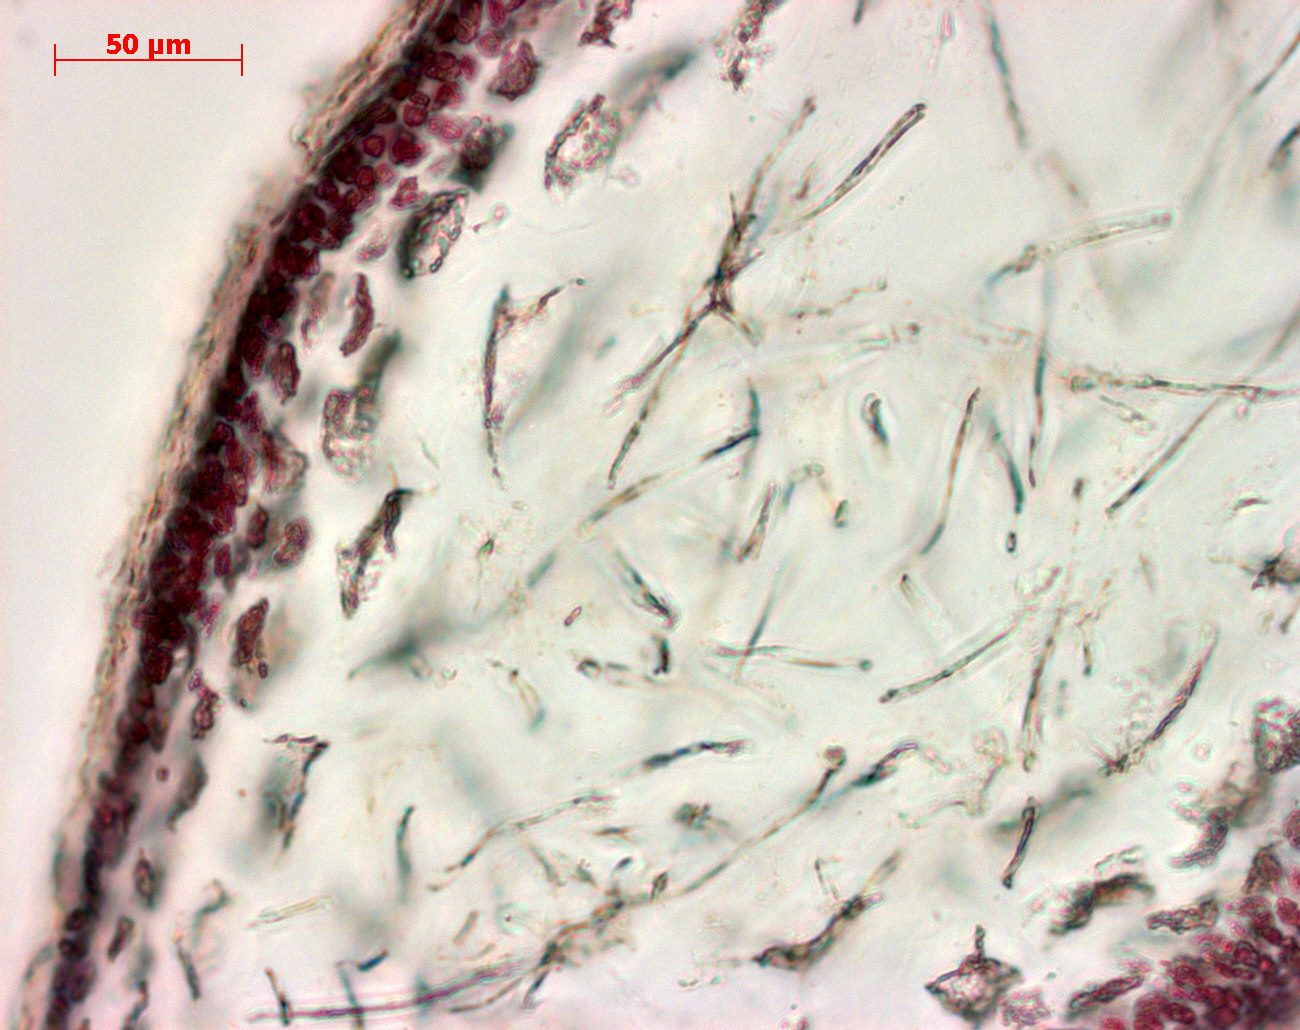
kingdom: Plantae
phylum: Rhodophyta
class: Florideophyceae
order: Gigartinales
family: Kallymeniaceae
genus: Psaromenia
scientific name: Psaromenia berggrenii
